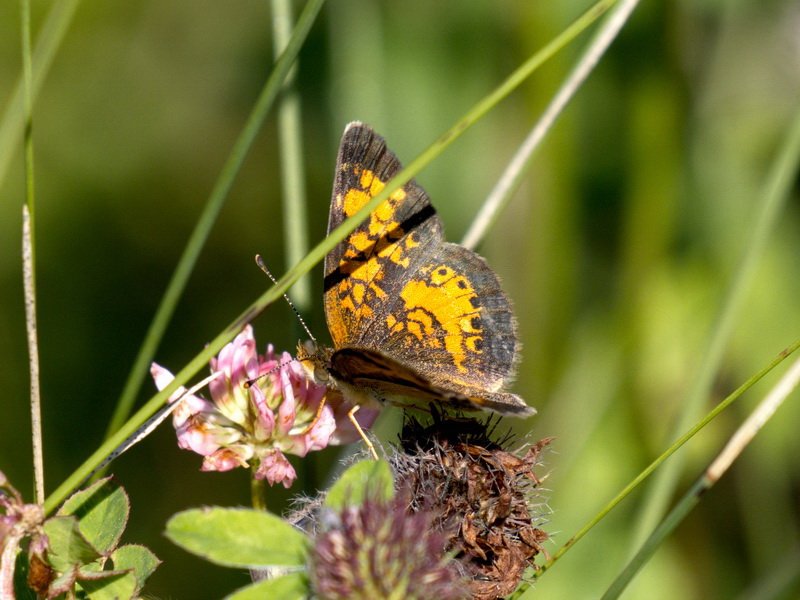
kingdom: Animalia
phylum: Arthropoda
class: Insecta
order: Lepidoptera
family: Nymphalidae
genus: Phyciodes
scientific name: Phyciodes tharos
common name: Northern Crescent
